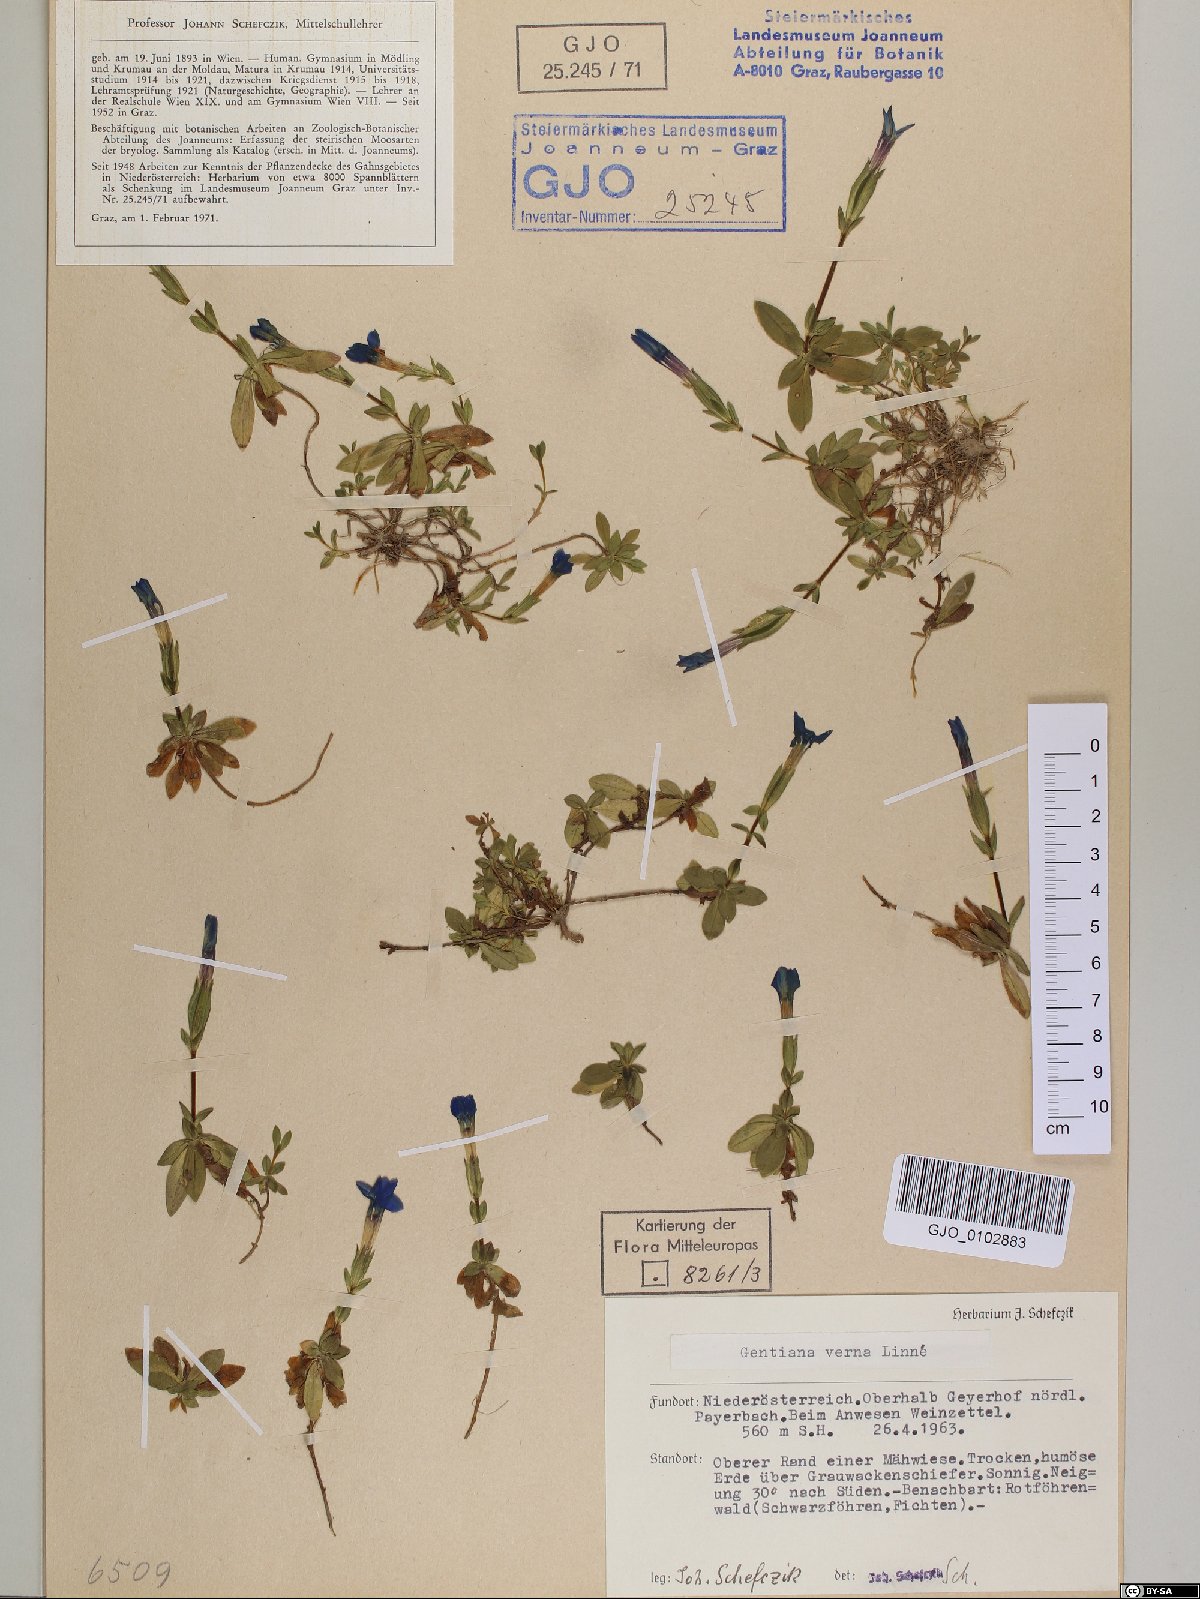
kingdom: Plantae
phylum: Tracheophyta
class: Magnoliopsida
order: Gentianales
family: Gentianaceae
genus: Gentiana
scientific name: Gentiana verna
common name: Spring gentian
